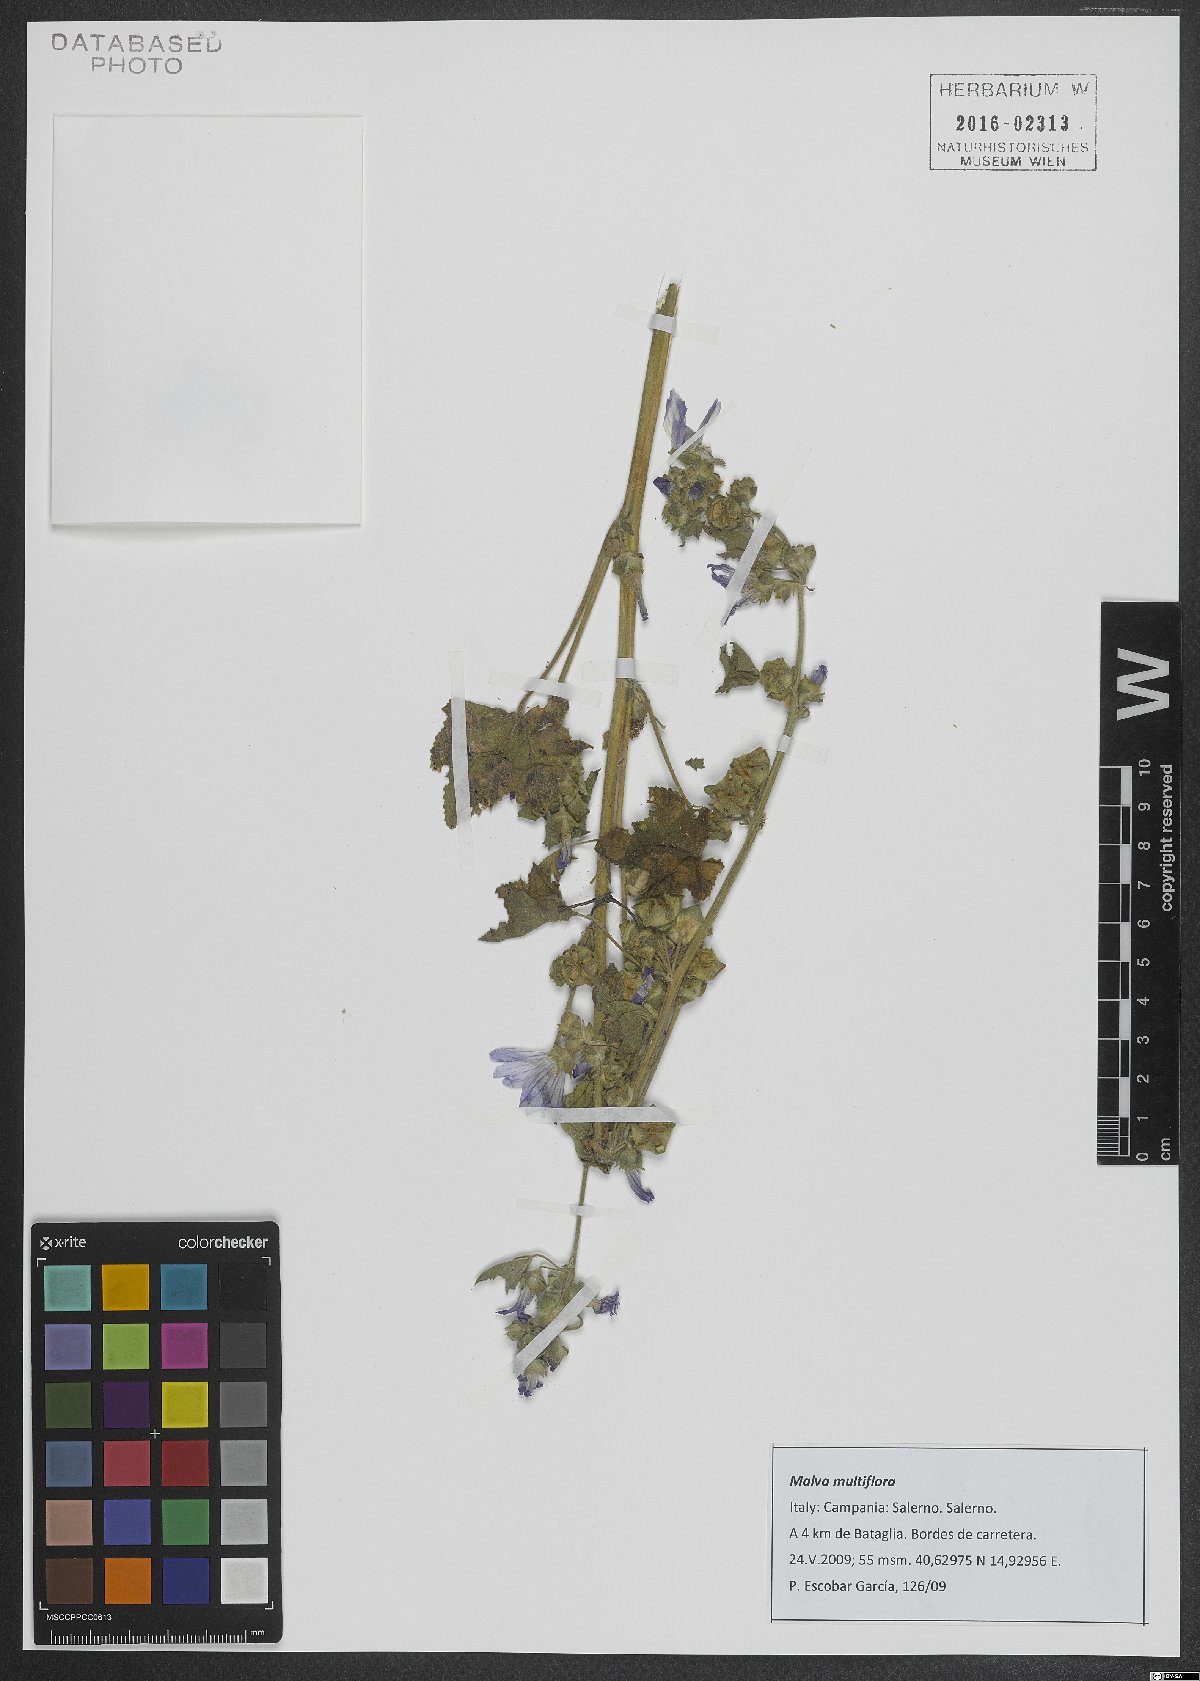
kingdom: Plantae
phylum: Tracheophyta
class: Magnoliopsida
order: Malvales
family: Malvaceae
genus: Malva
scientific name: Malva multiflora
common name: Cheeseweed
